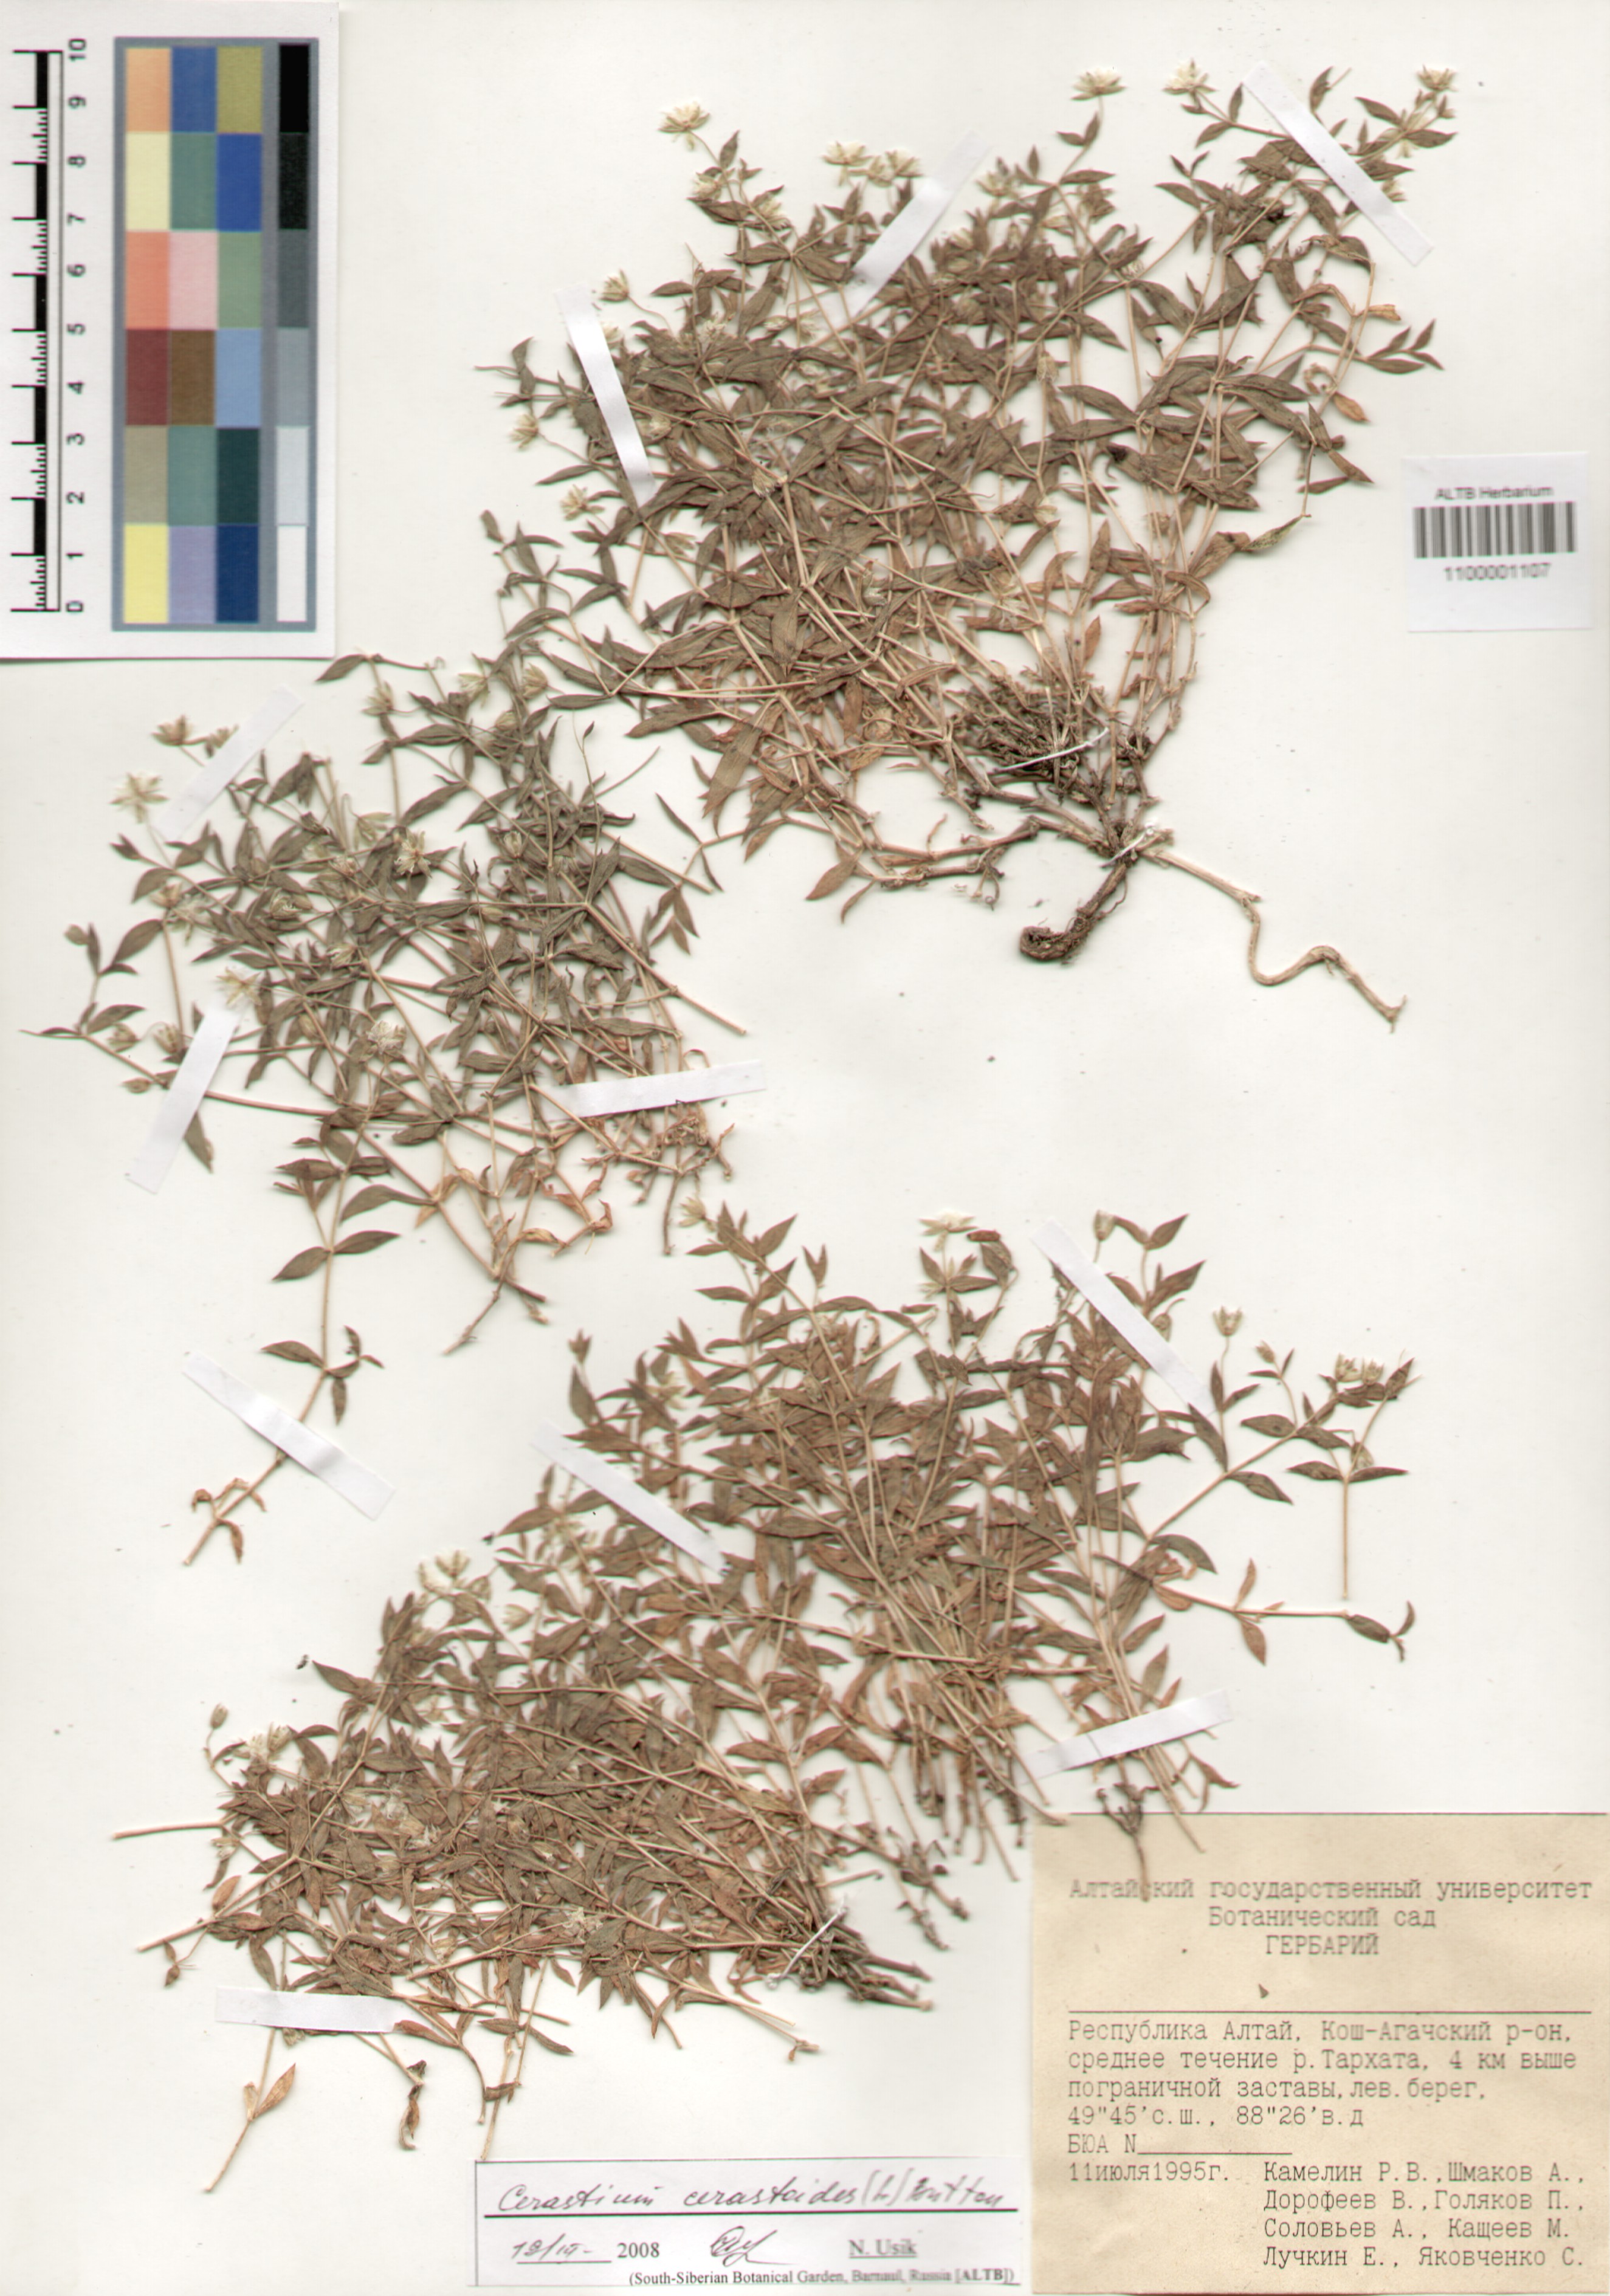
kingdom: Plantae
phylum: Tracheophyta
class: Magnoliopsida
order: Caryophyllales
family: Caryophyllaceae
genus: Dichodon
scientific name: Dichodon cerastoides
